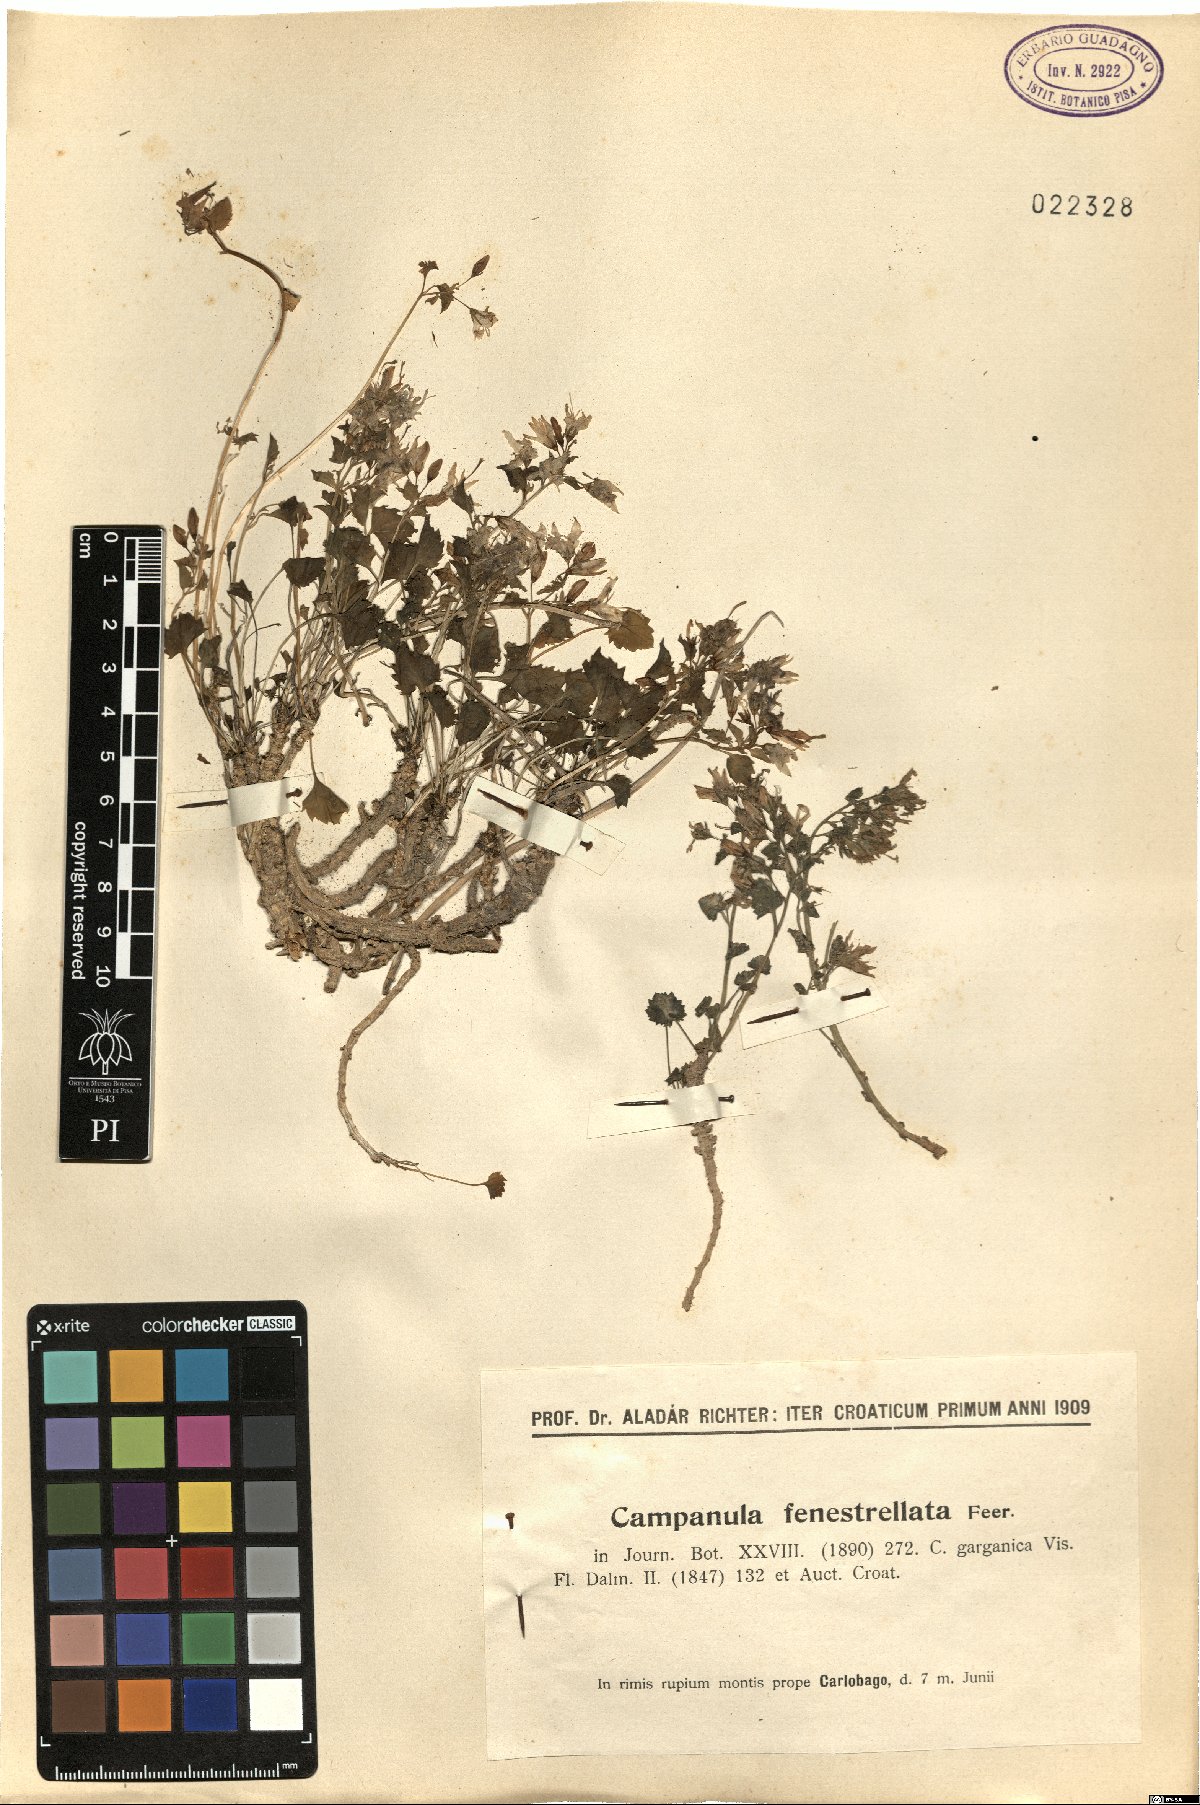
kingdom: Plantae
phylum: Tracheophyta
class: Magnoliopsida
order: Asterales
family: Campanulaceae
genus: Campanula
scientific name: Campanula fenestrellata
